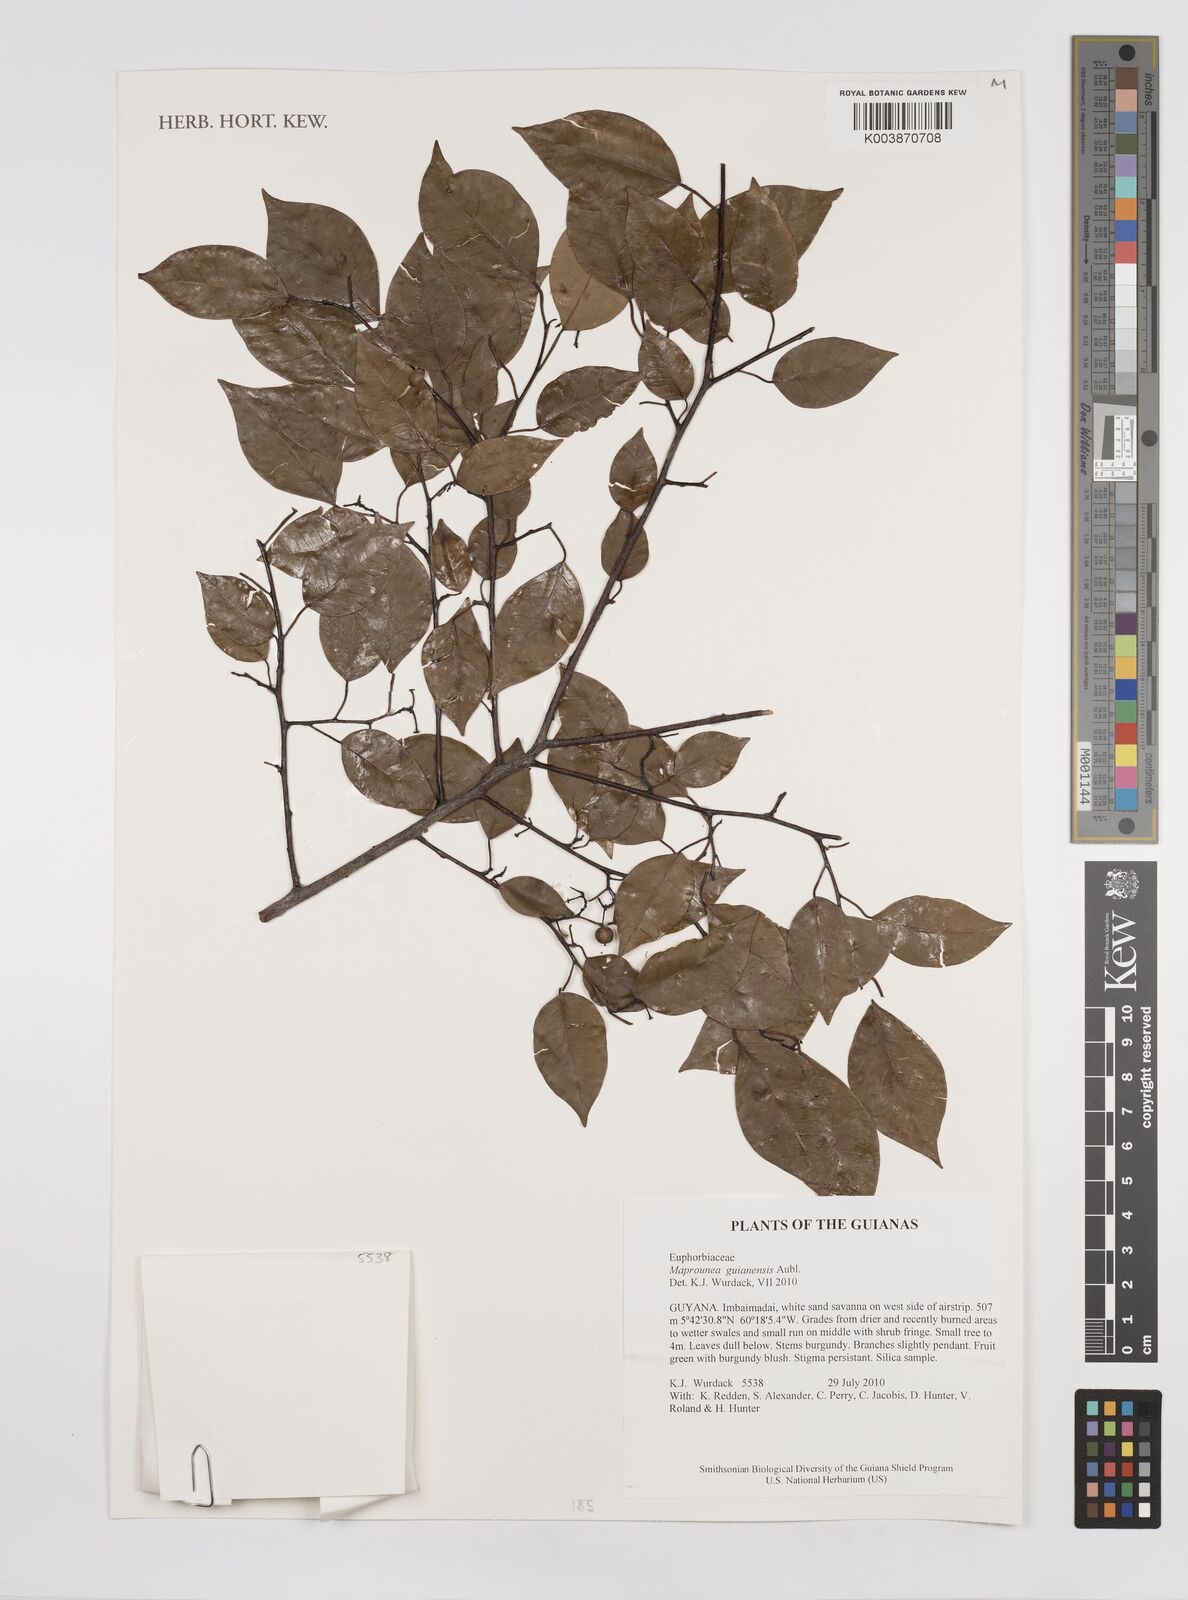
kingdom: Plantae
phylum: Tracheophyta
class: Magnoliopsida
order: Malpighiales
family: Euphorbiaceae
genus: Maprounea
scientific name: Maprounea guianensis
